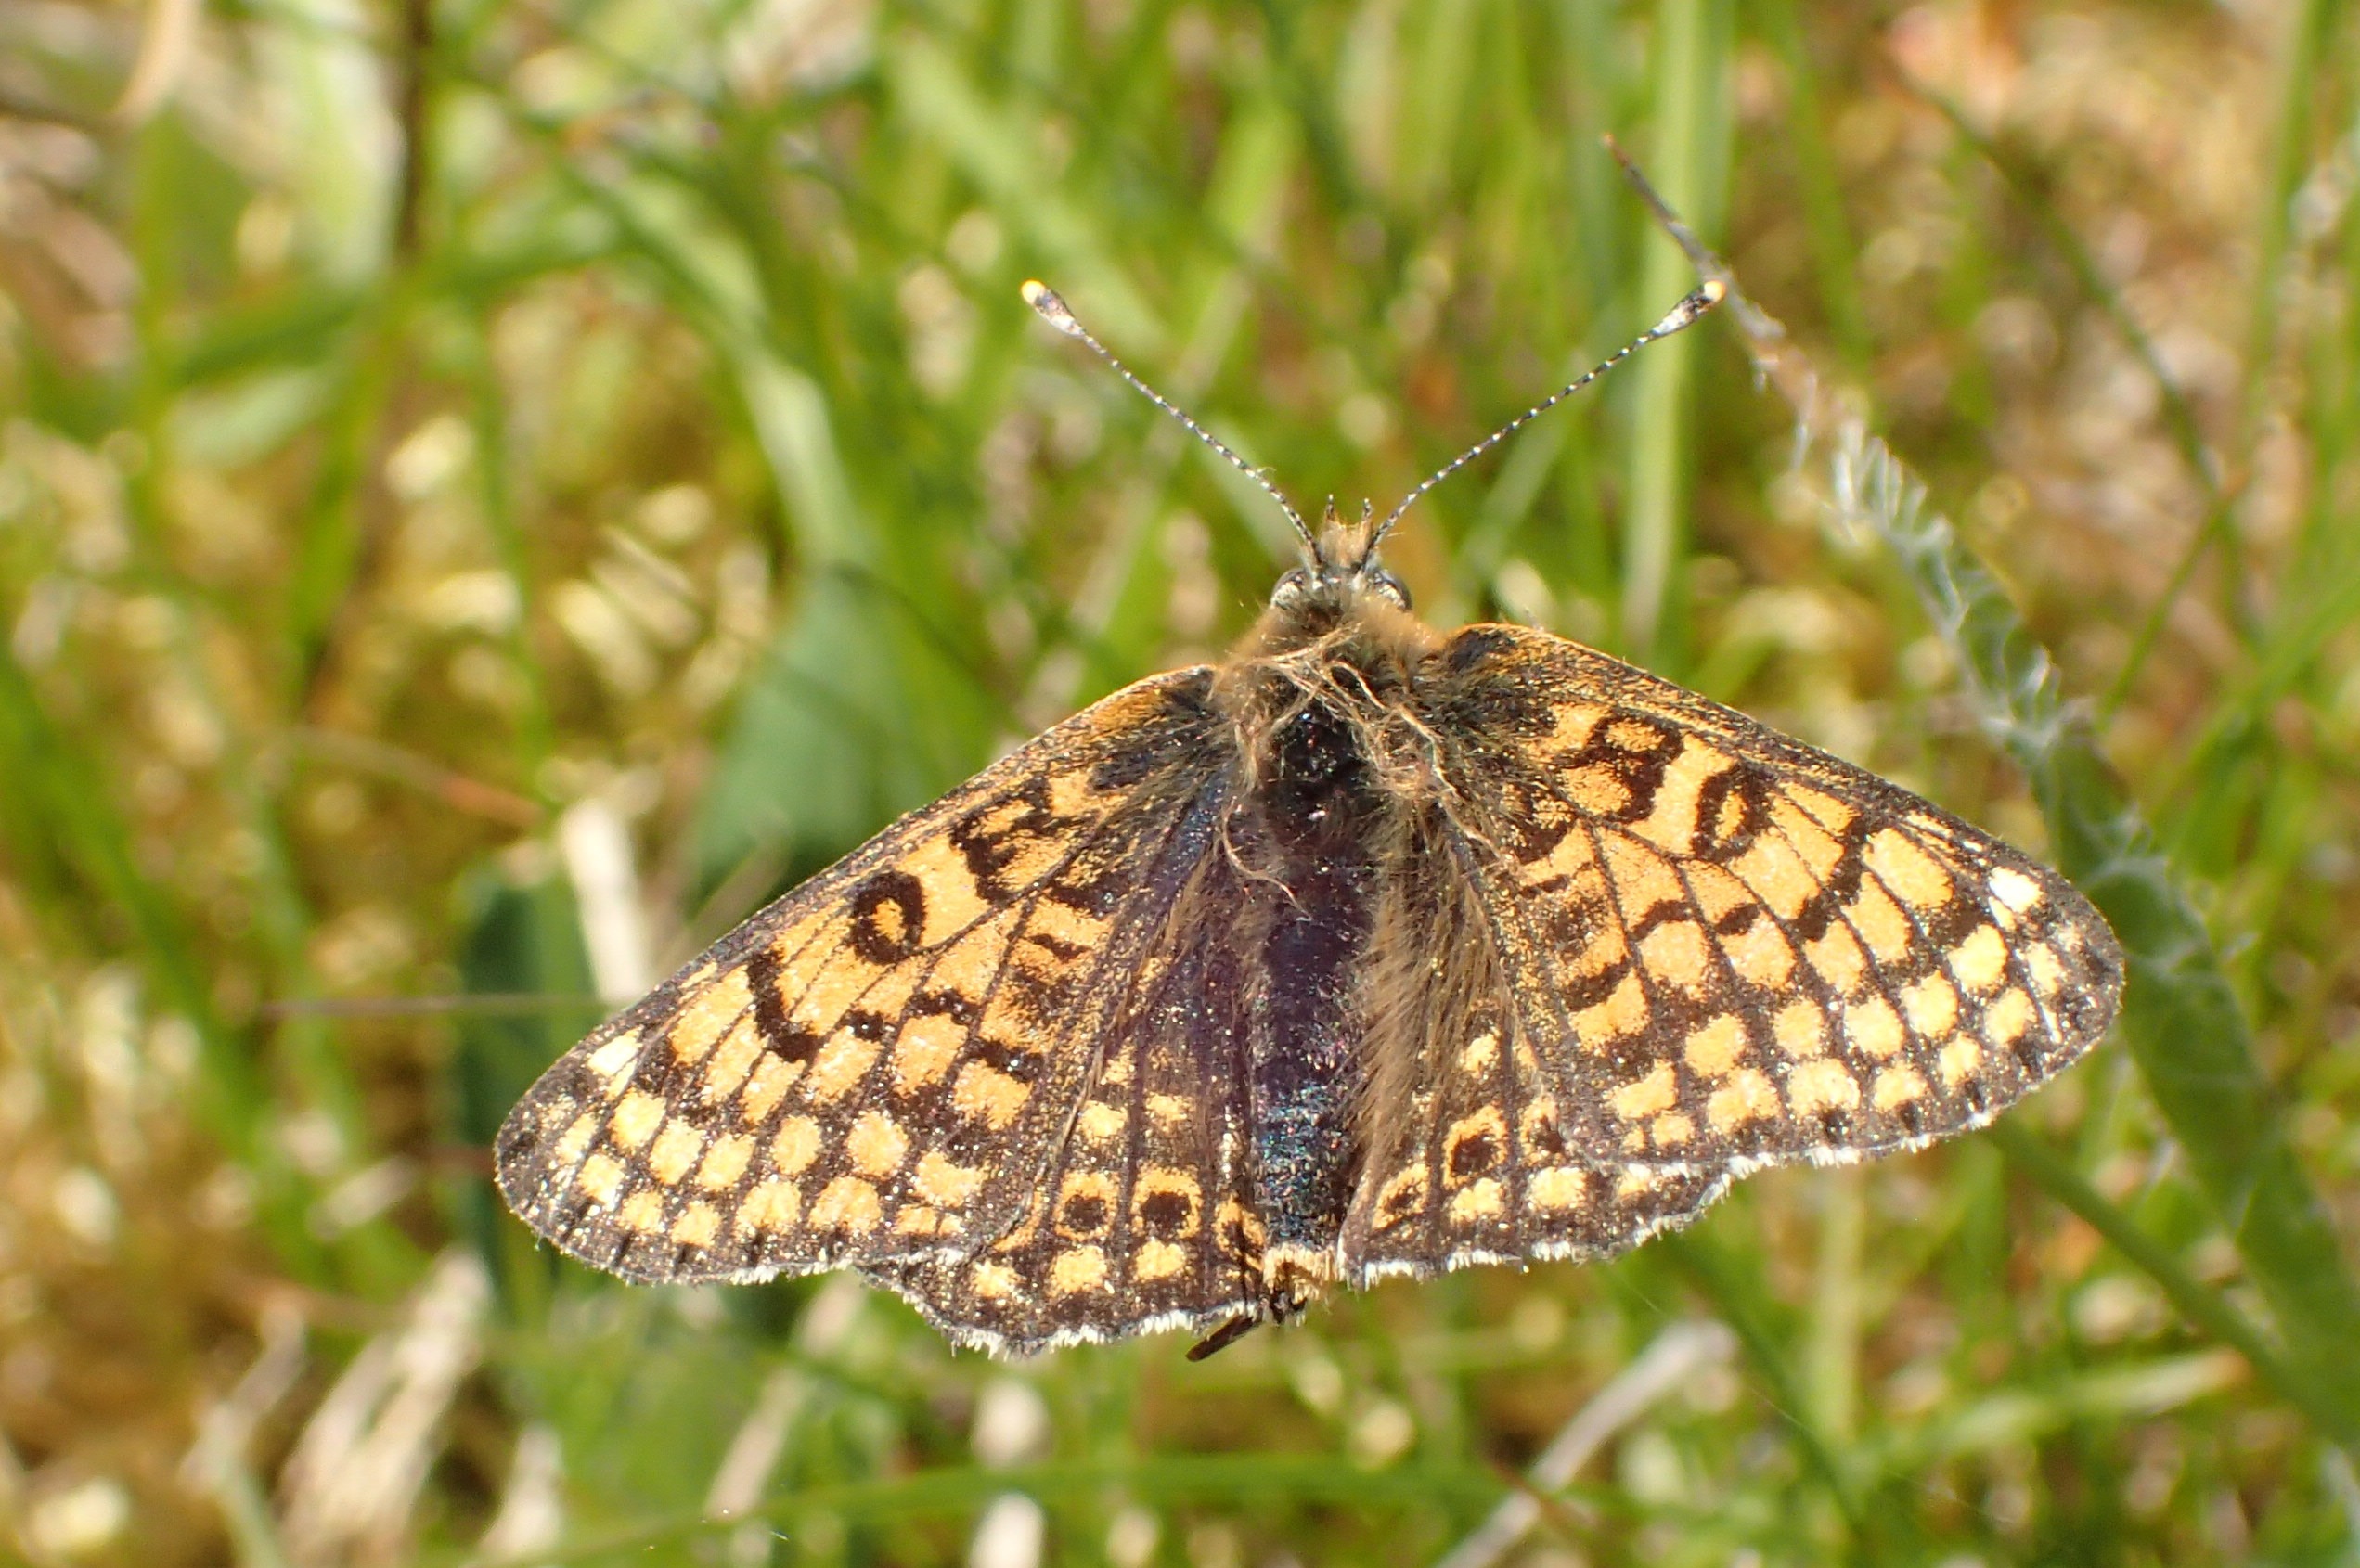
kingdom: Animalia
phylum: Arthropoda
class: Insecta
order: Lepidoptera
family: Nymphalidae
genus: Melitaea
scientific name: Melitaea cinxia
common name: Okkergul pletvinge
